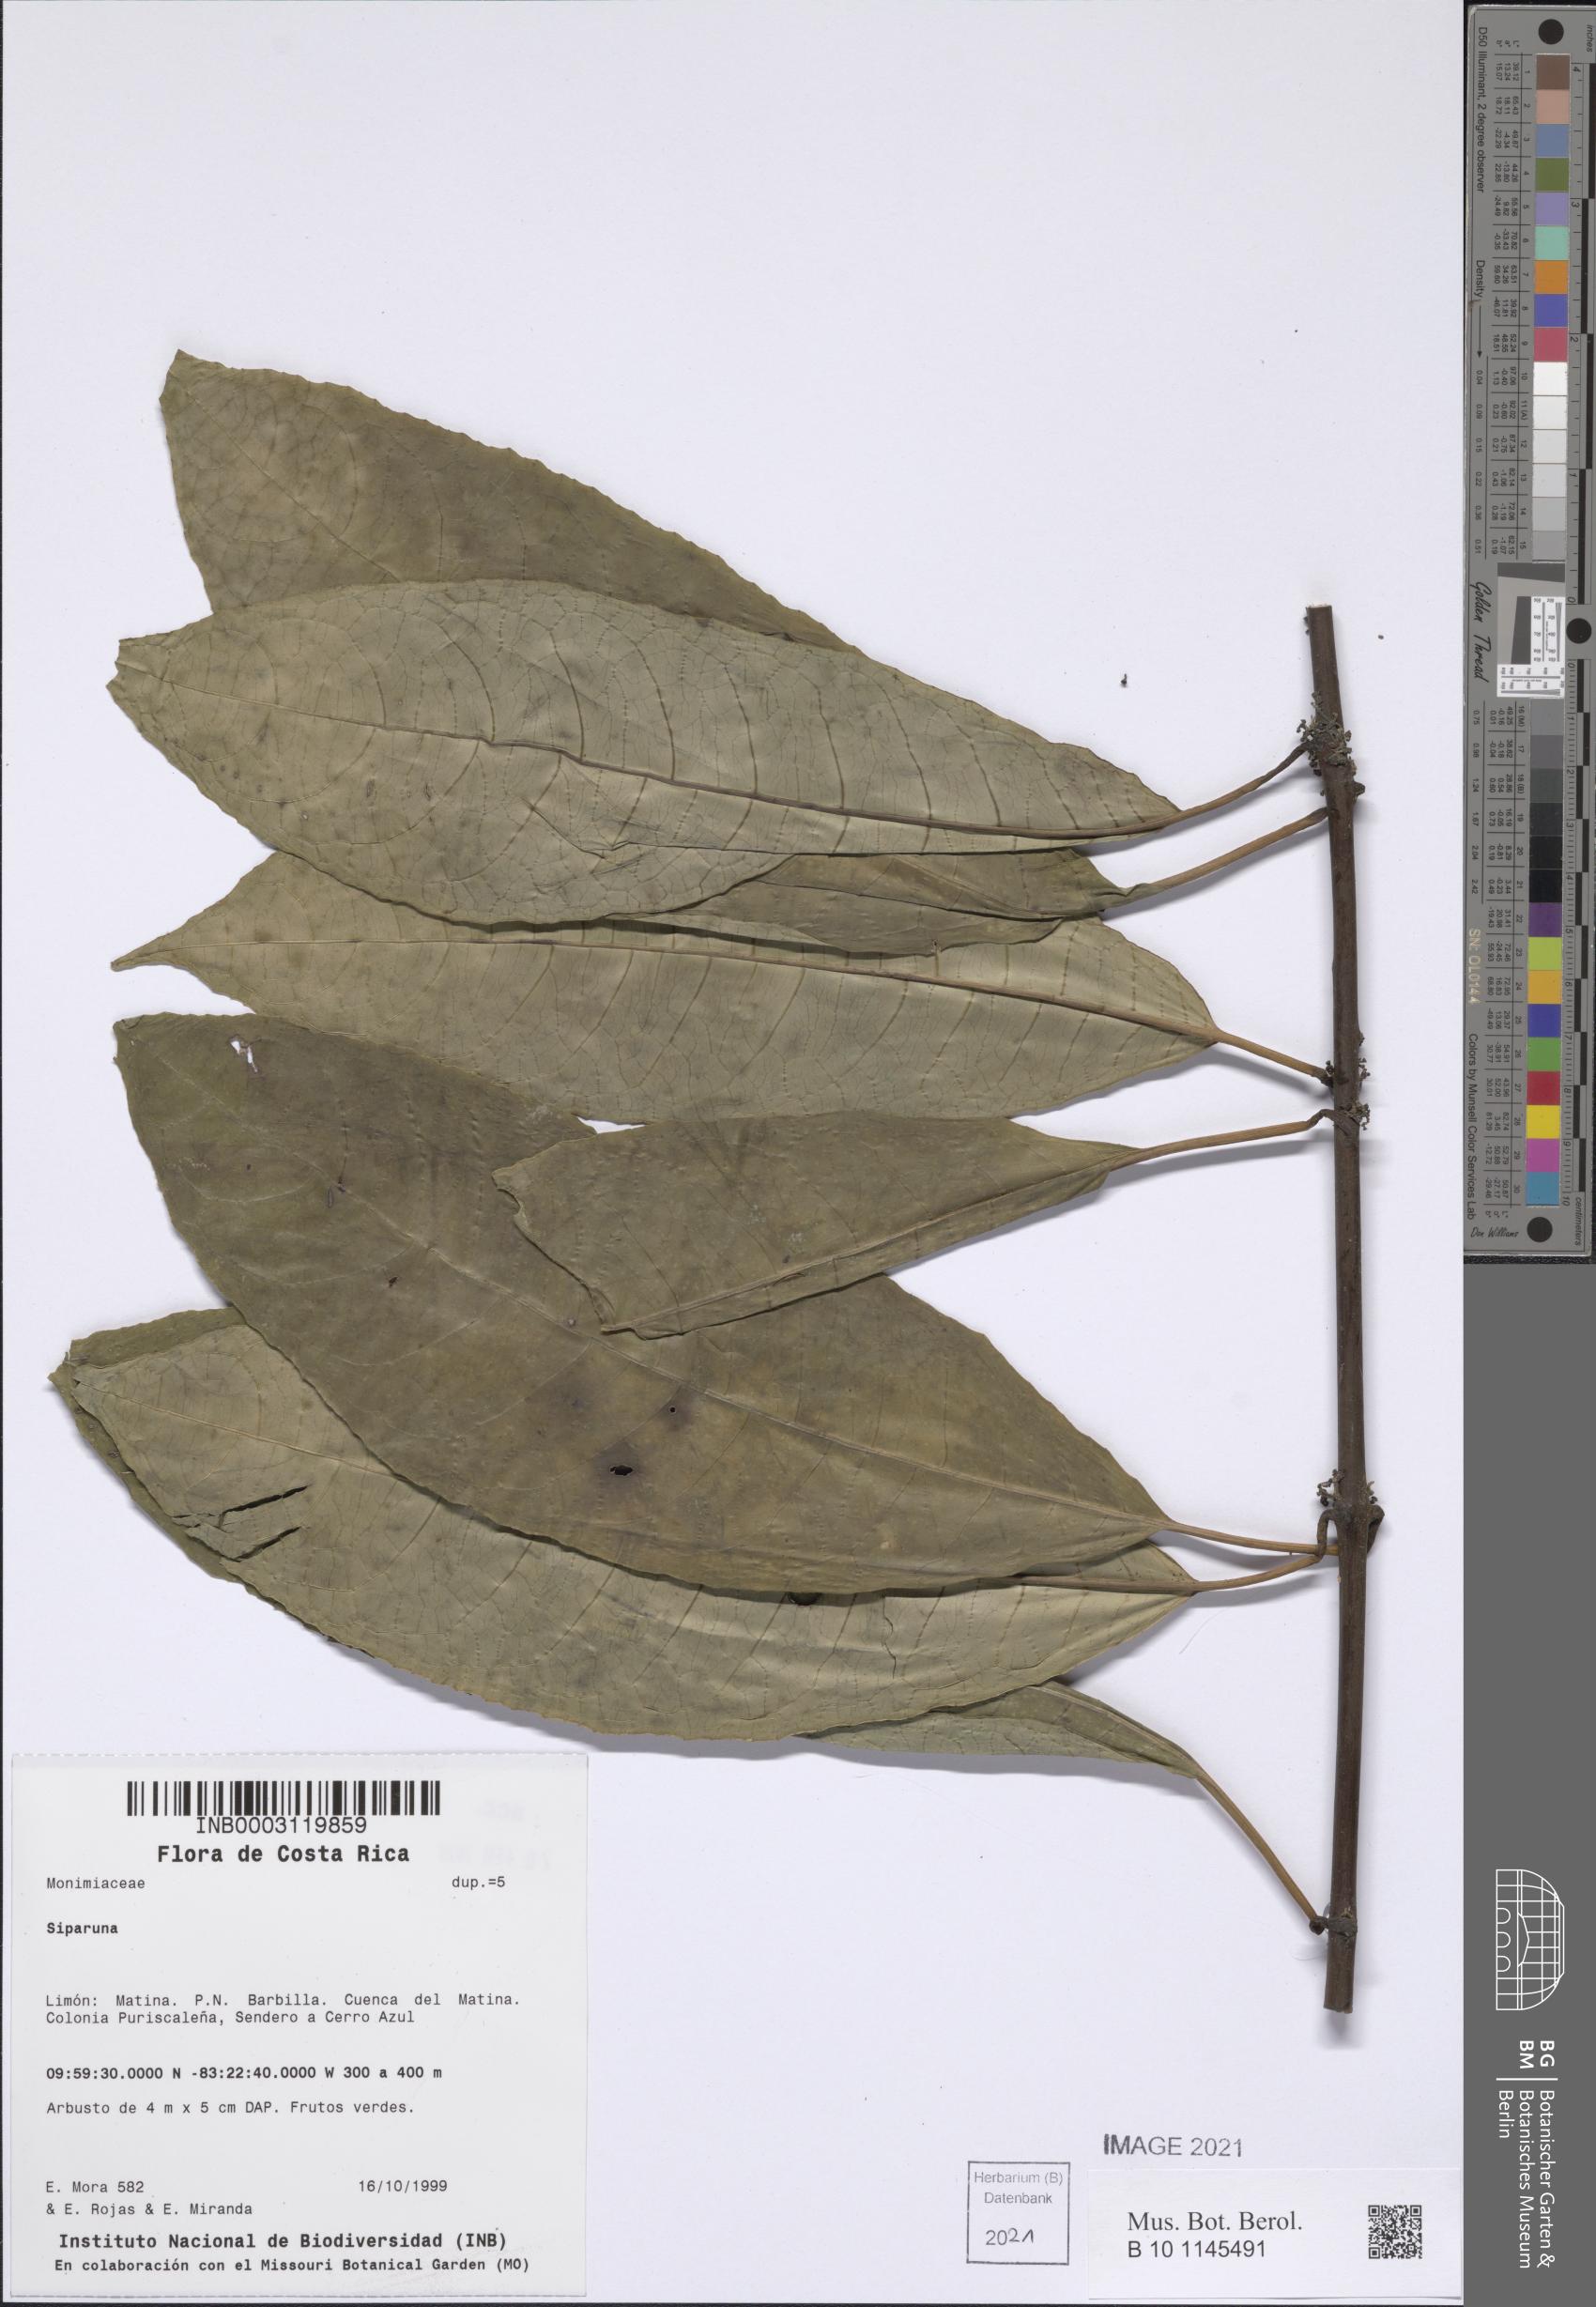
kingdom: Plantae
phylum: Tracheophyta
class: Magnoliopsida
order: Laurales
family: Siparunaceae
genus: Siparuna
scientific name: Siparuna
